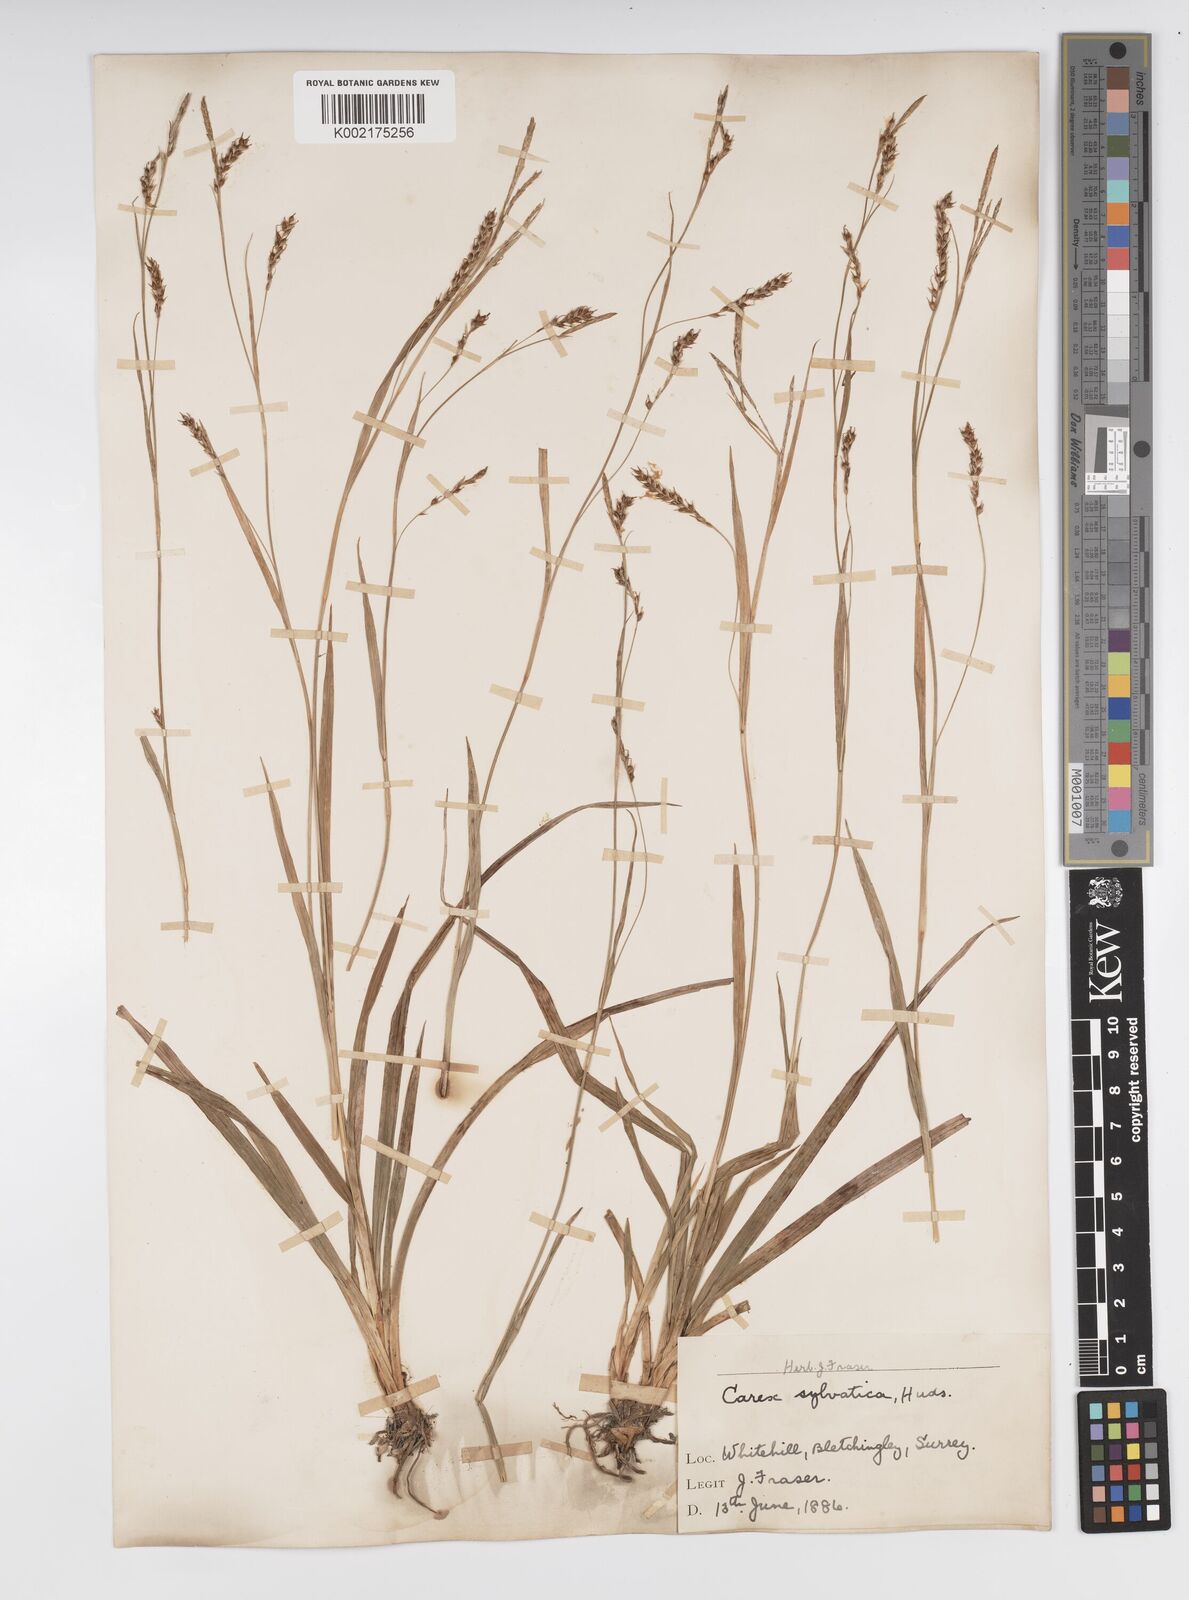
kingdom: Plantae
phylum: Tracheophyta
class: Liliopsida
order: Poales
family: Cyperaceae
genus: Carex
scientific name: Carex sylvatica
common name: Wood-sedge
